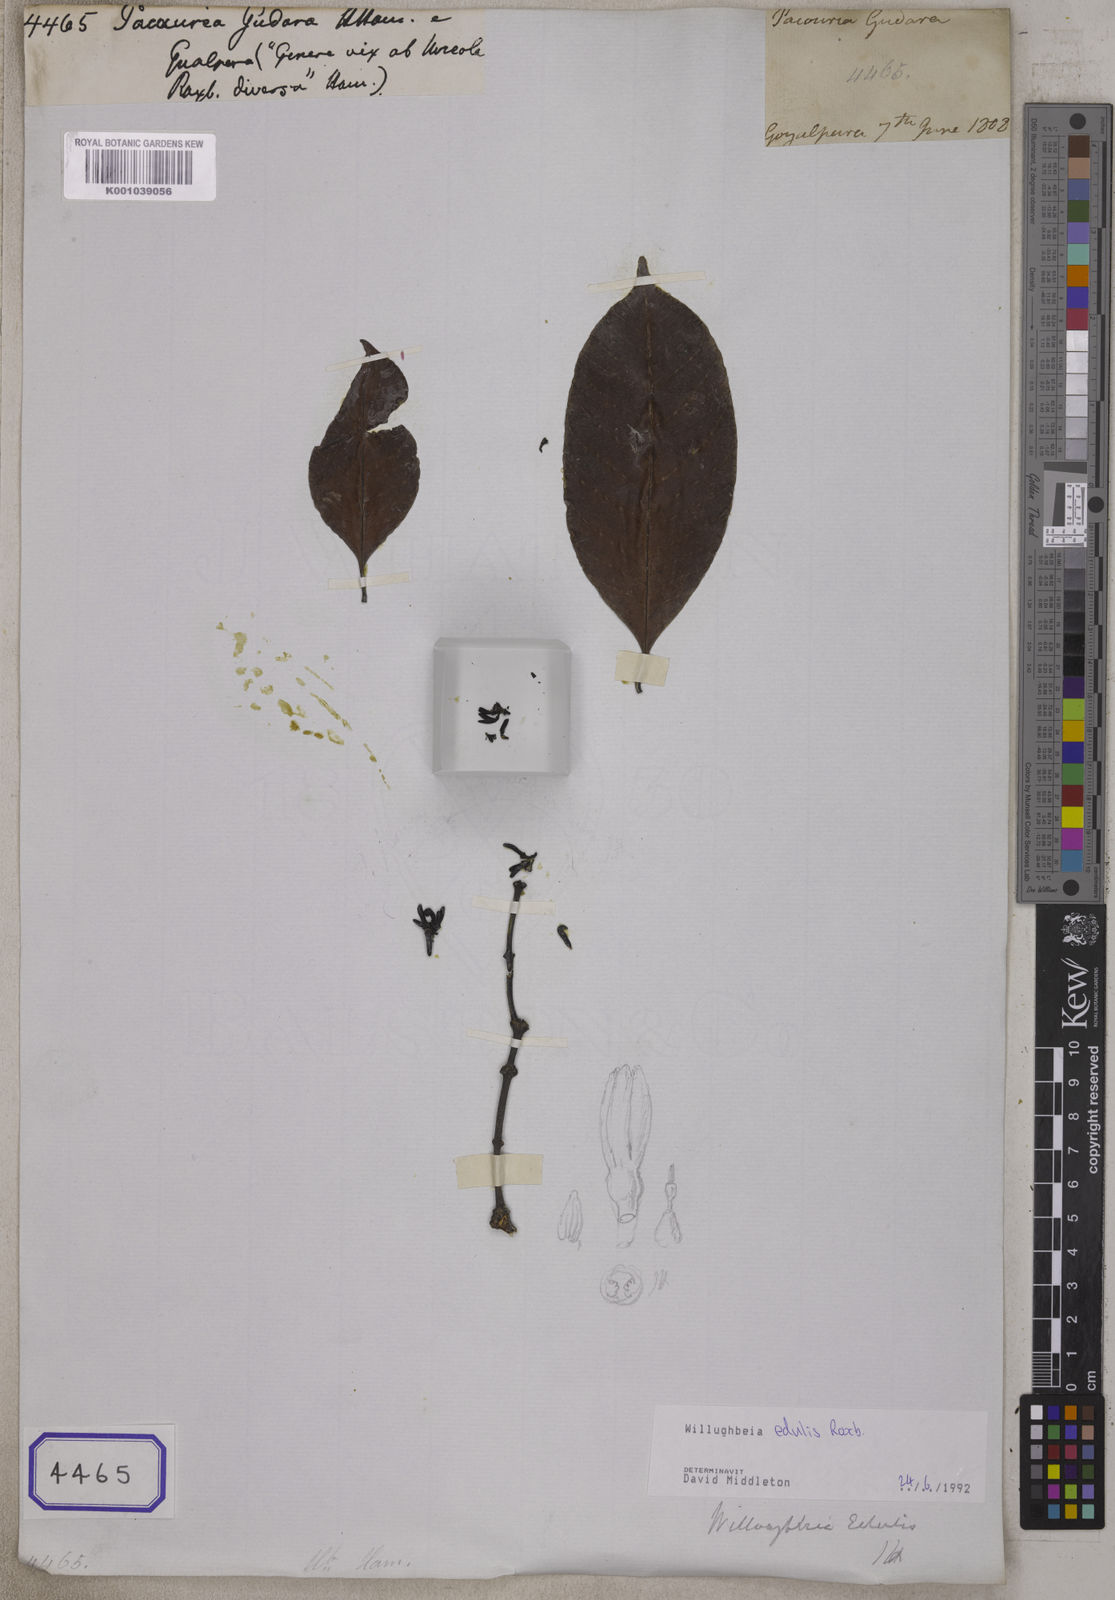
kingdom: Plantae
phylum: Tracheophyta
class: Magnoliopsida
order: Gentianales
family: Apocynaceae
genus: Pacouria
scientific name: Pacouria
